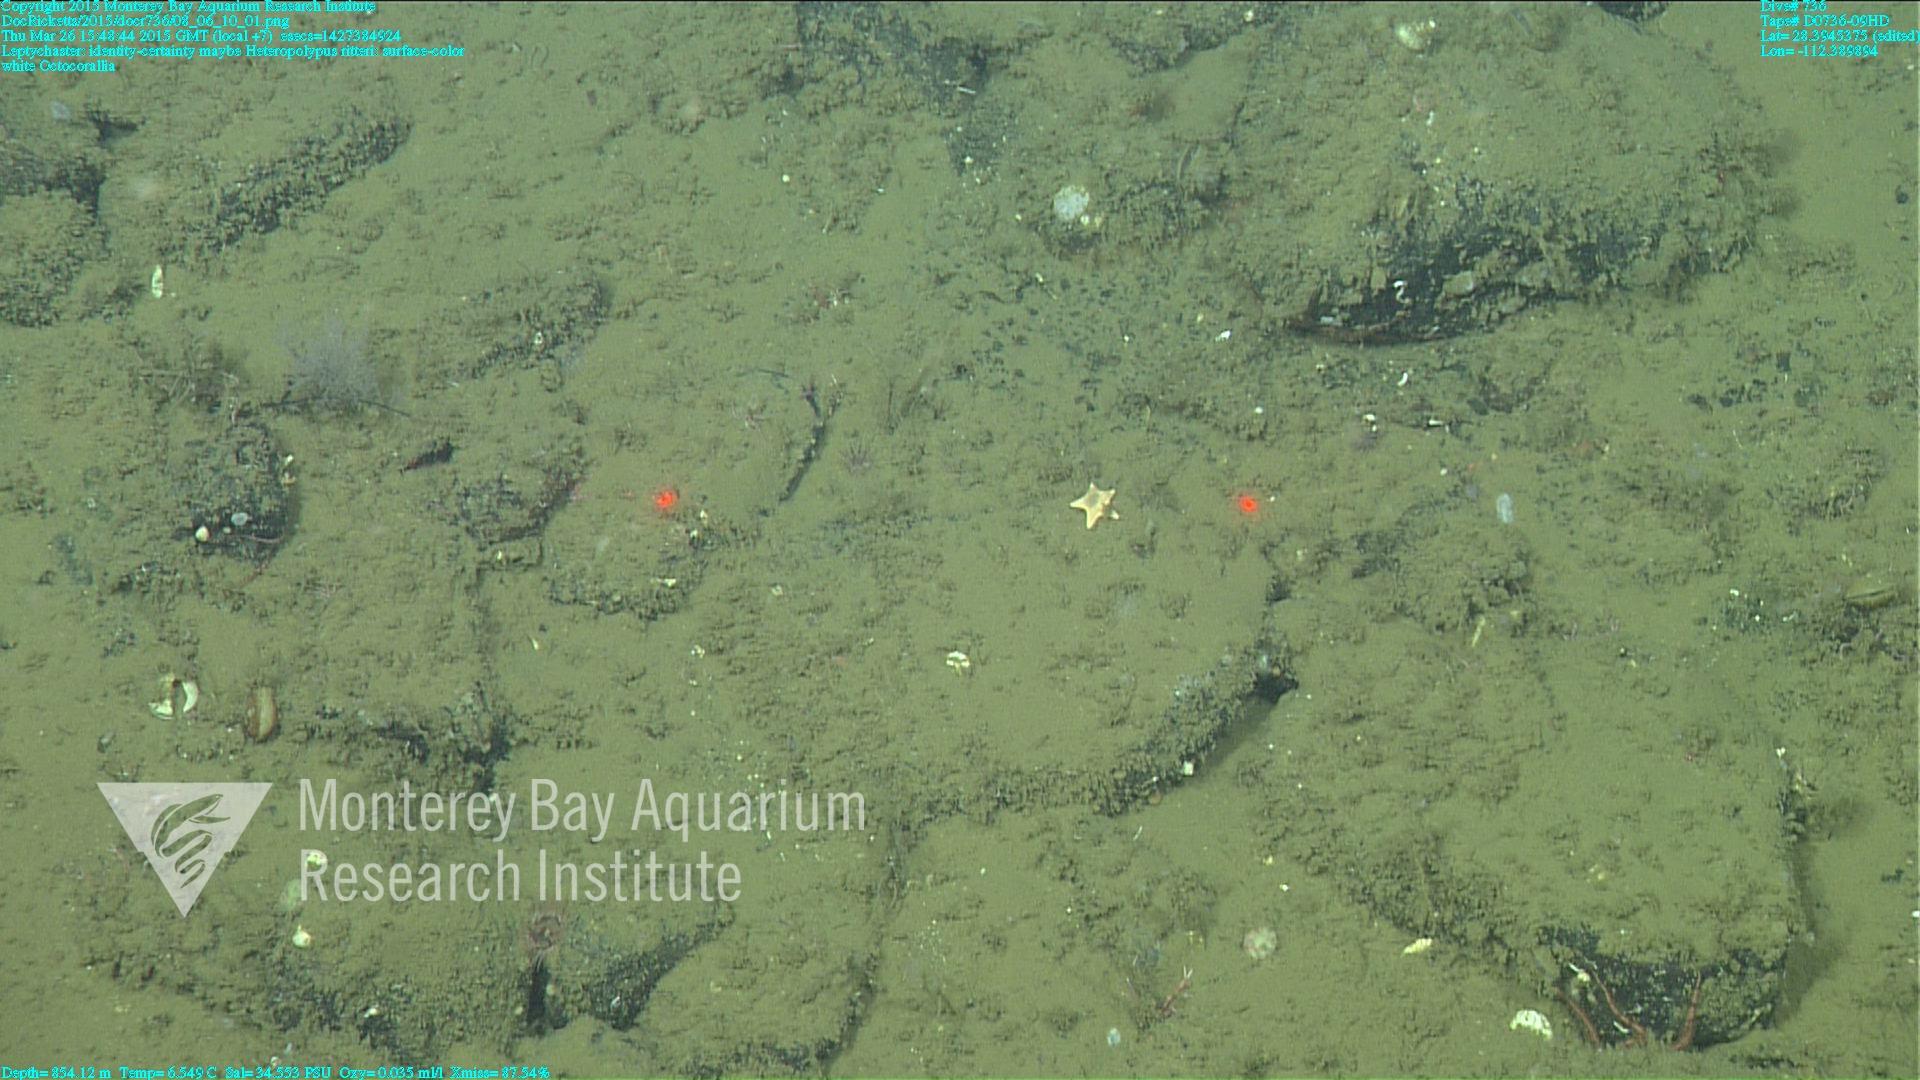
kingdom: Animalia
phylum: Cnidaria
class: Anthozoa
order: Scleralcyonacea
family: Coralliidae
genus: Heteropolypus
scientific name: Heteropolypus ritteri
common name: Ritter's soft coral
